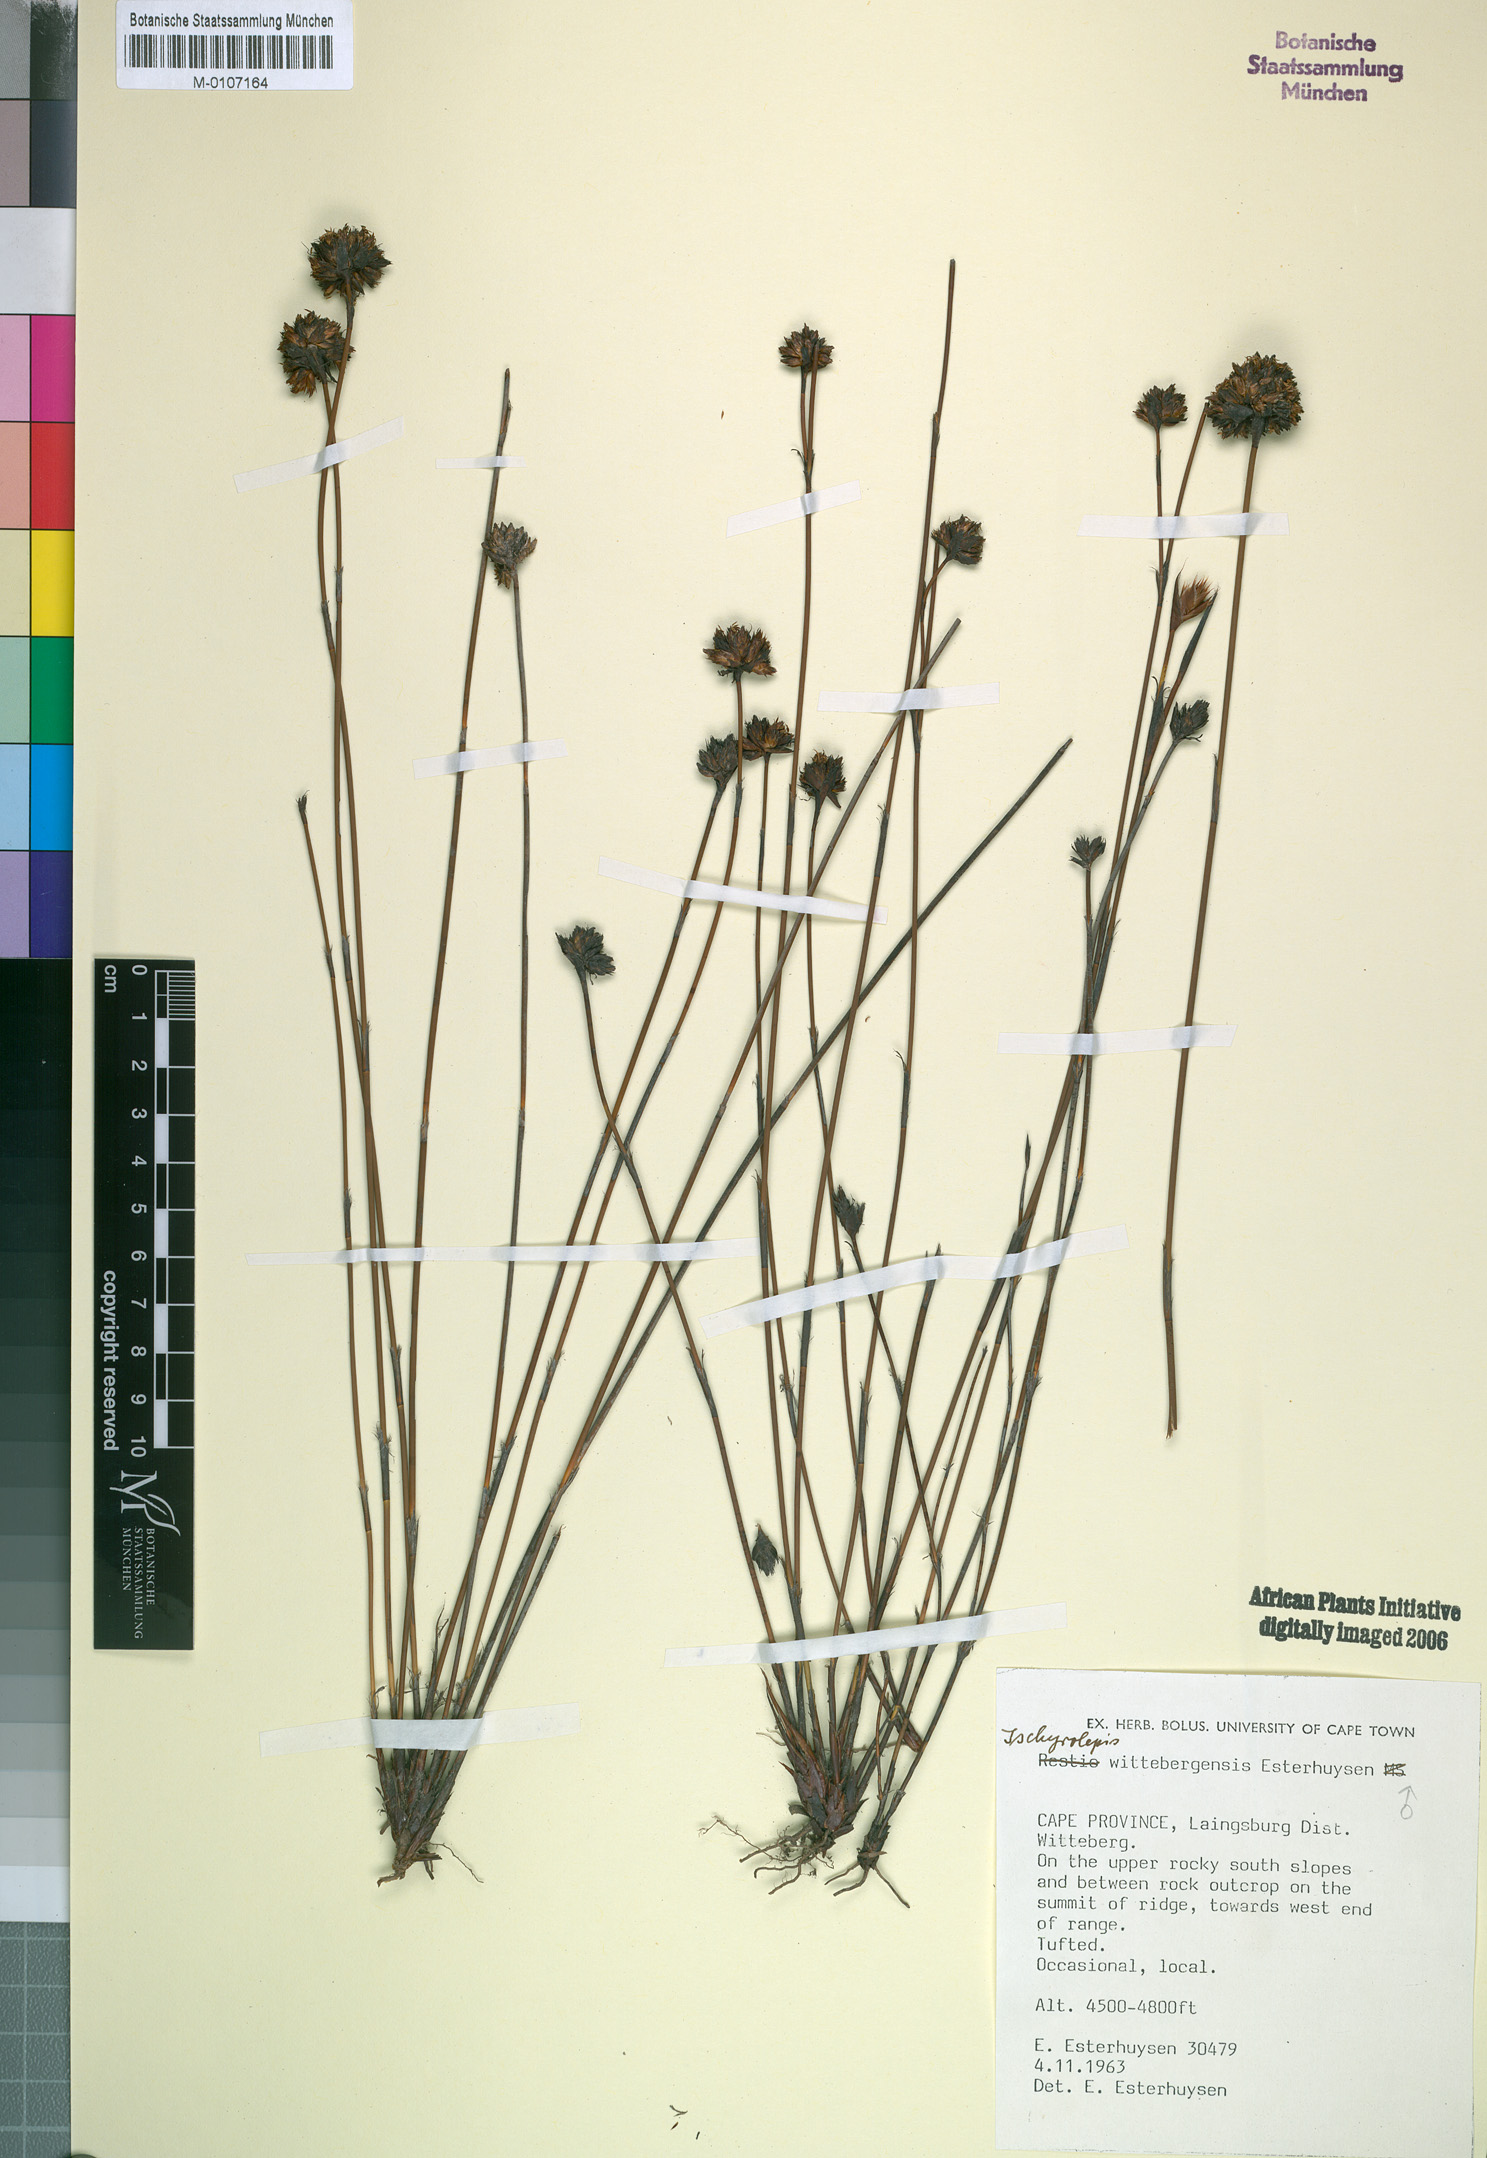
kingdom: Plantae
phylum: Tracheophyta
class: Liliopsida
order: Poales
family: Restionaceae
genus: Restio
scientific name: Restio wittebergensis
